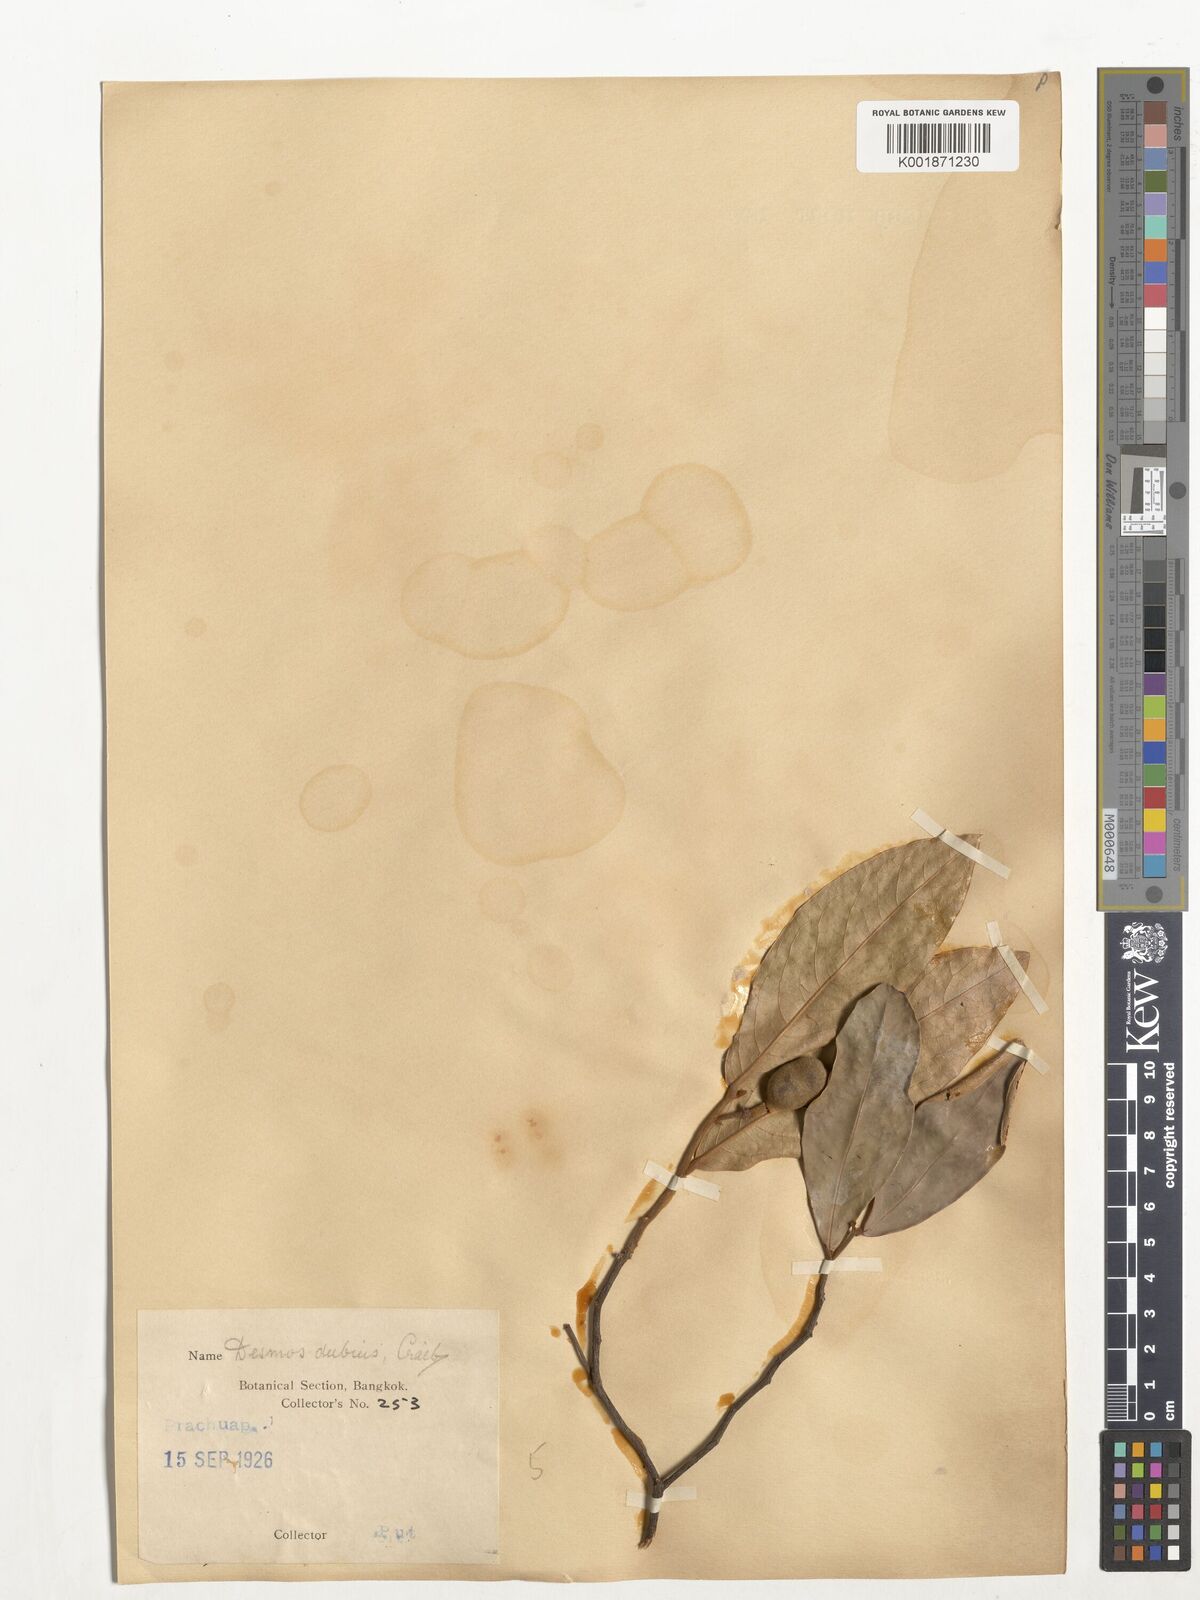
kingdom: Plantae
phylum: Tracheophyta
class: Magnoliopsida
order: Magnoliales
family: Annonaceae
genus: Polyalthia
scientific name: Polyalthia
